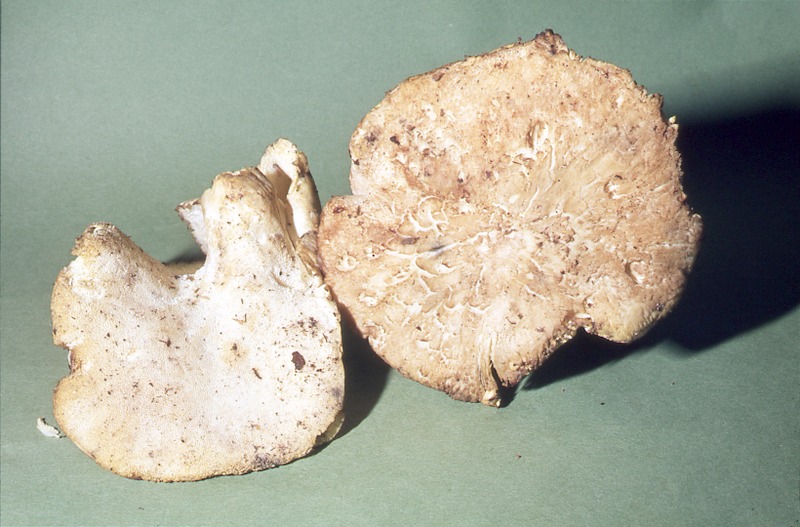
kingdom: Fungi
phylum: Basidiomycota
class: Agaricomycetes
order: Russulales
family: Albatrellaceae
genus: Albatrellus
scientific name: Albatrellus ovinus
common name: Forest lamb
